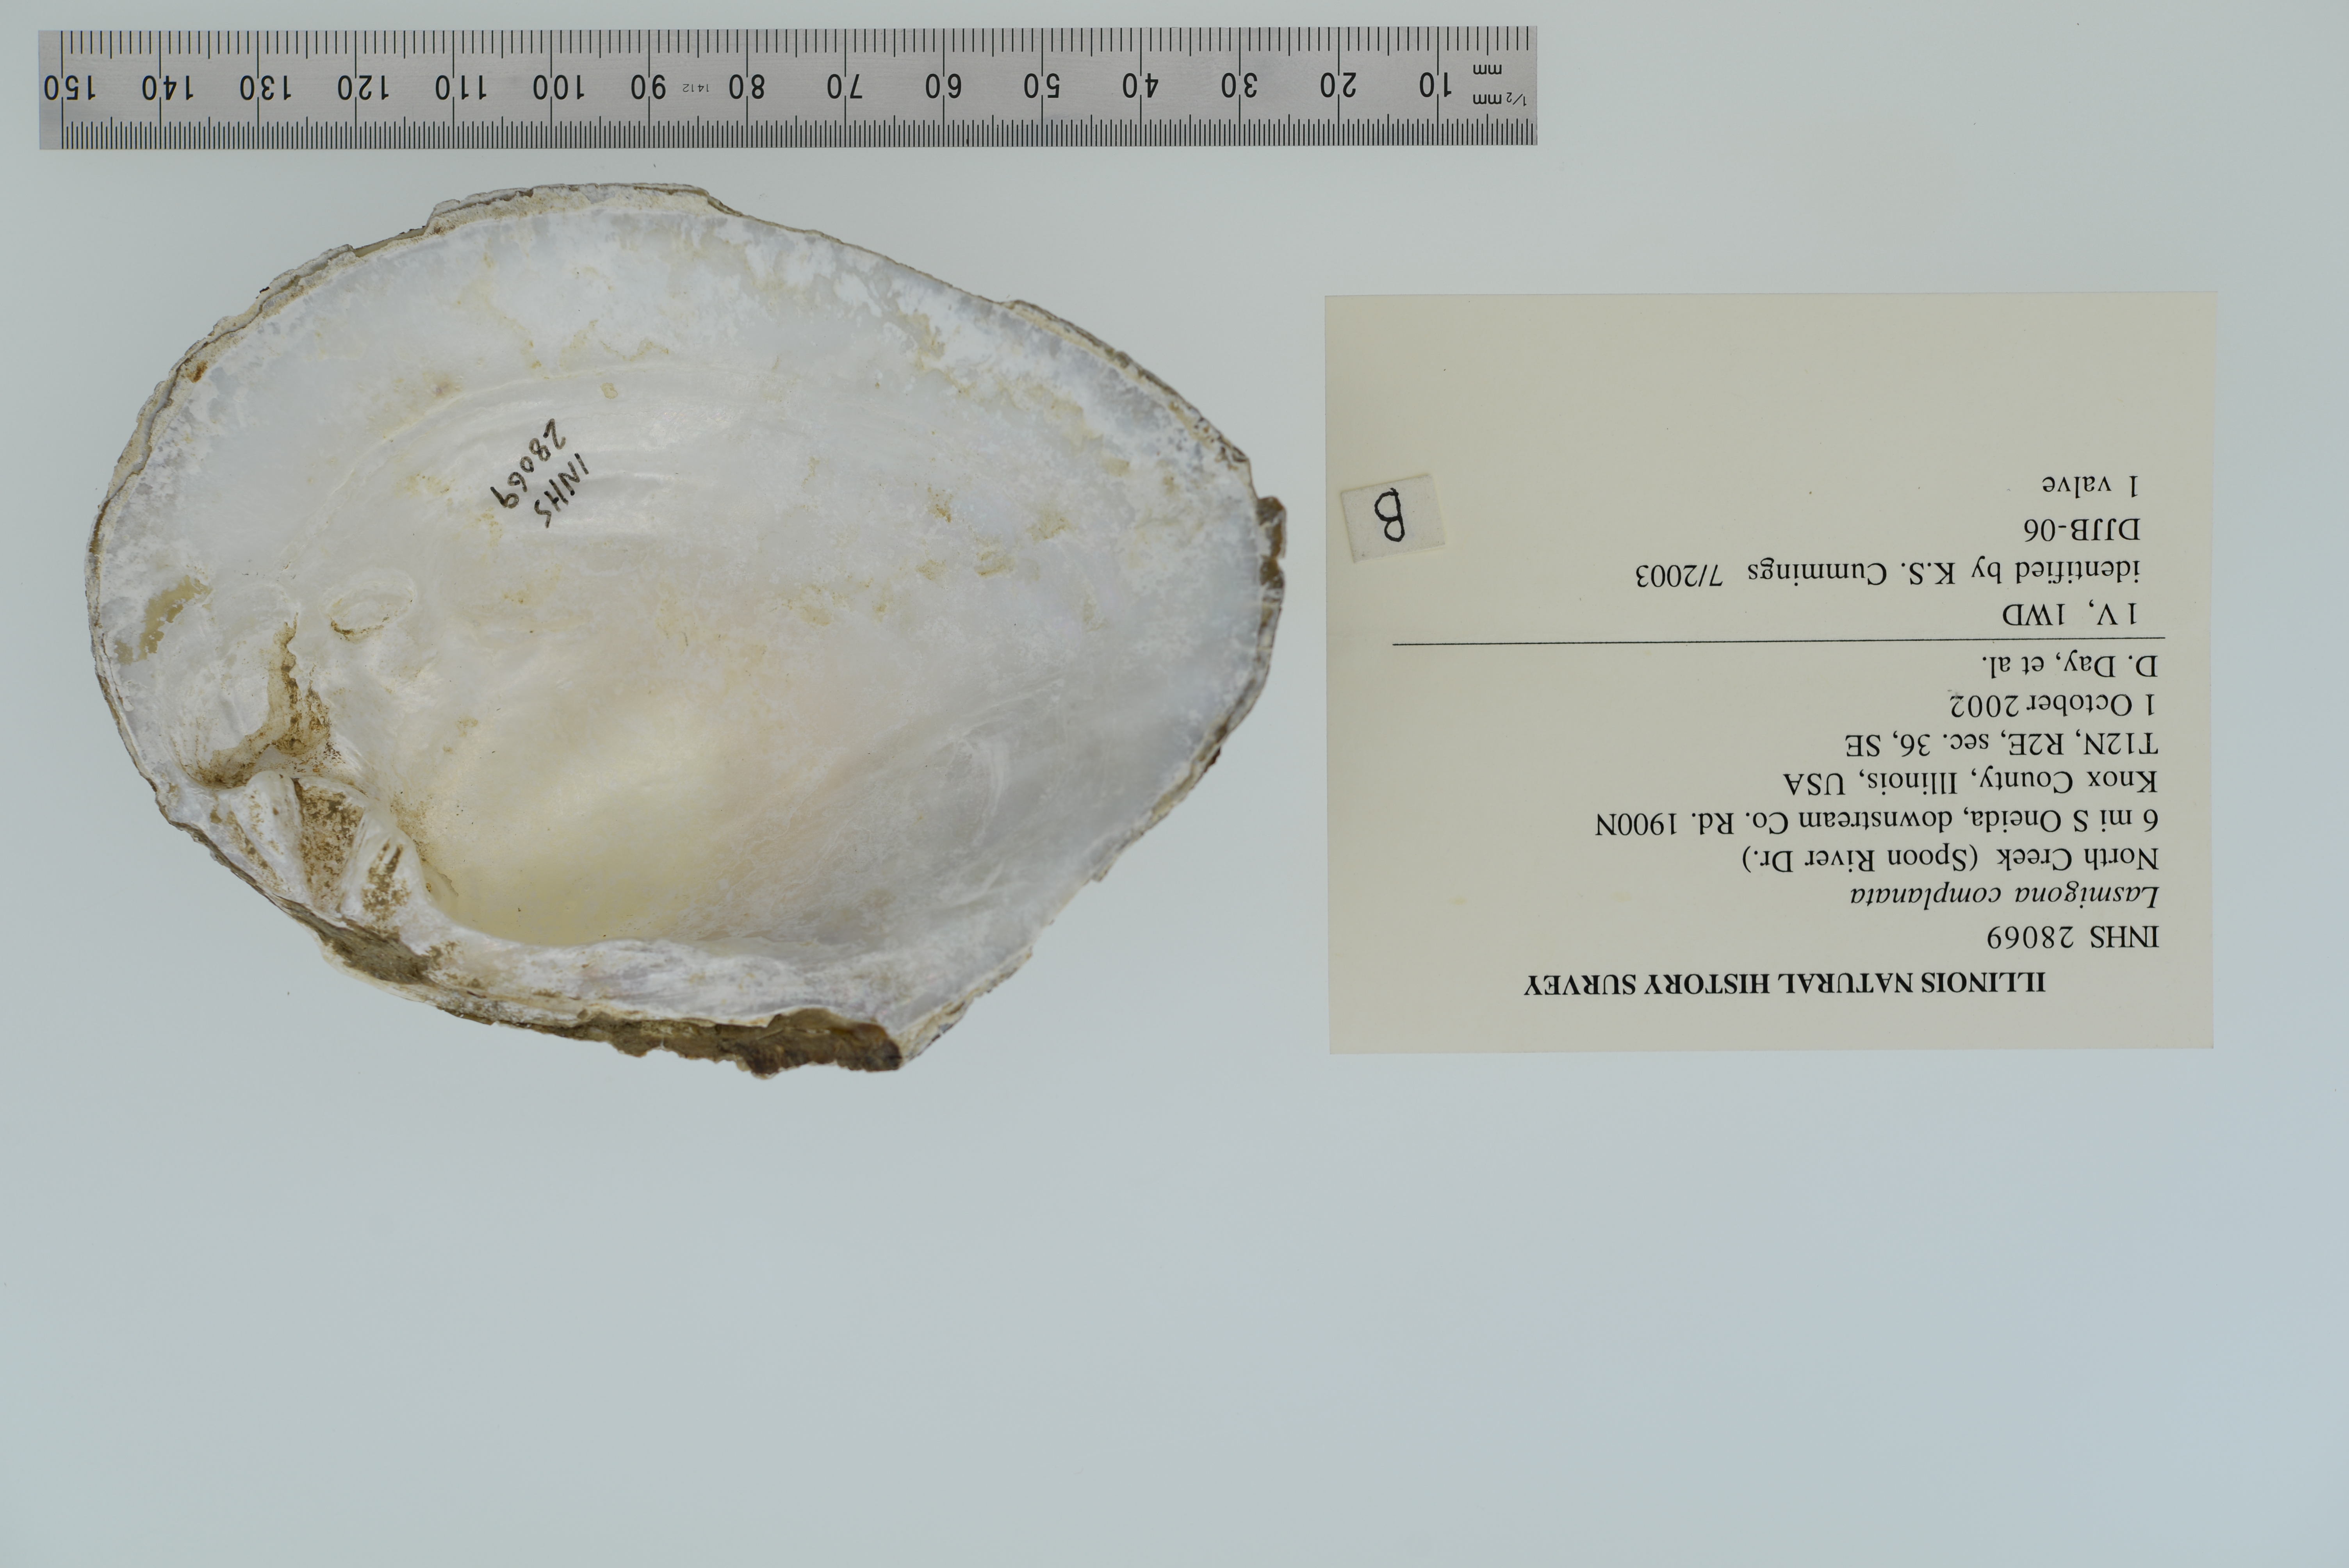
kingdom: Animalia
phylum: Mollusca
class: Bivalvia
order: Unionida
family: Unionidae
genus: Lasmigona
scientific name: Lasmigona complanata
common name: White heelsplitter
